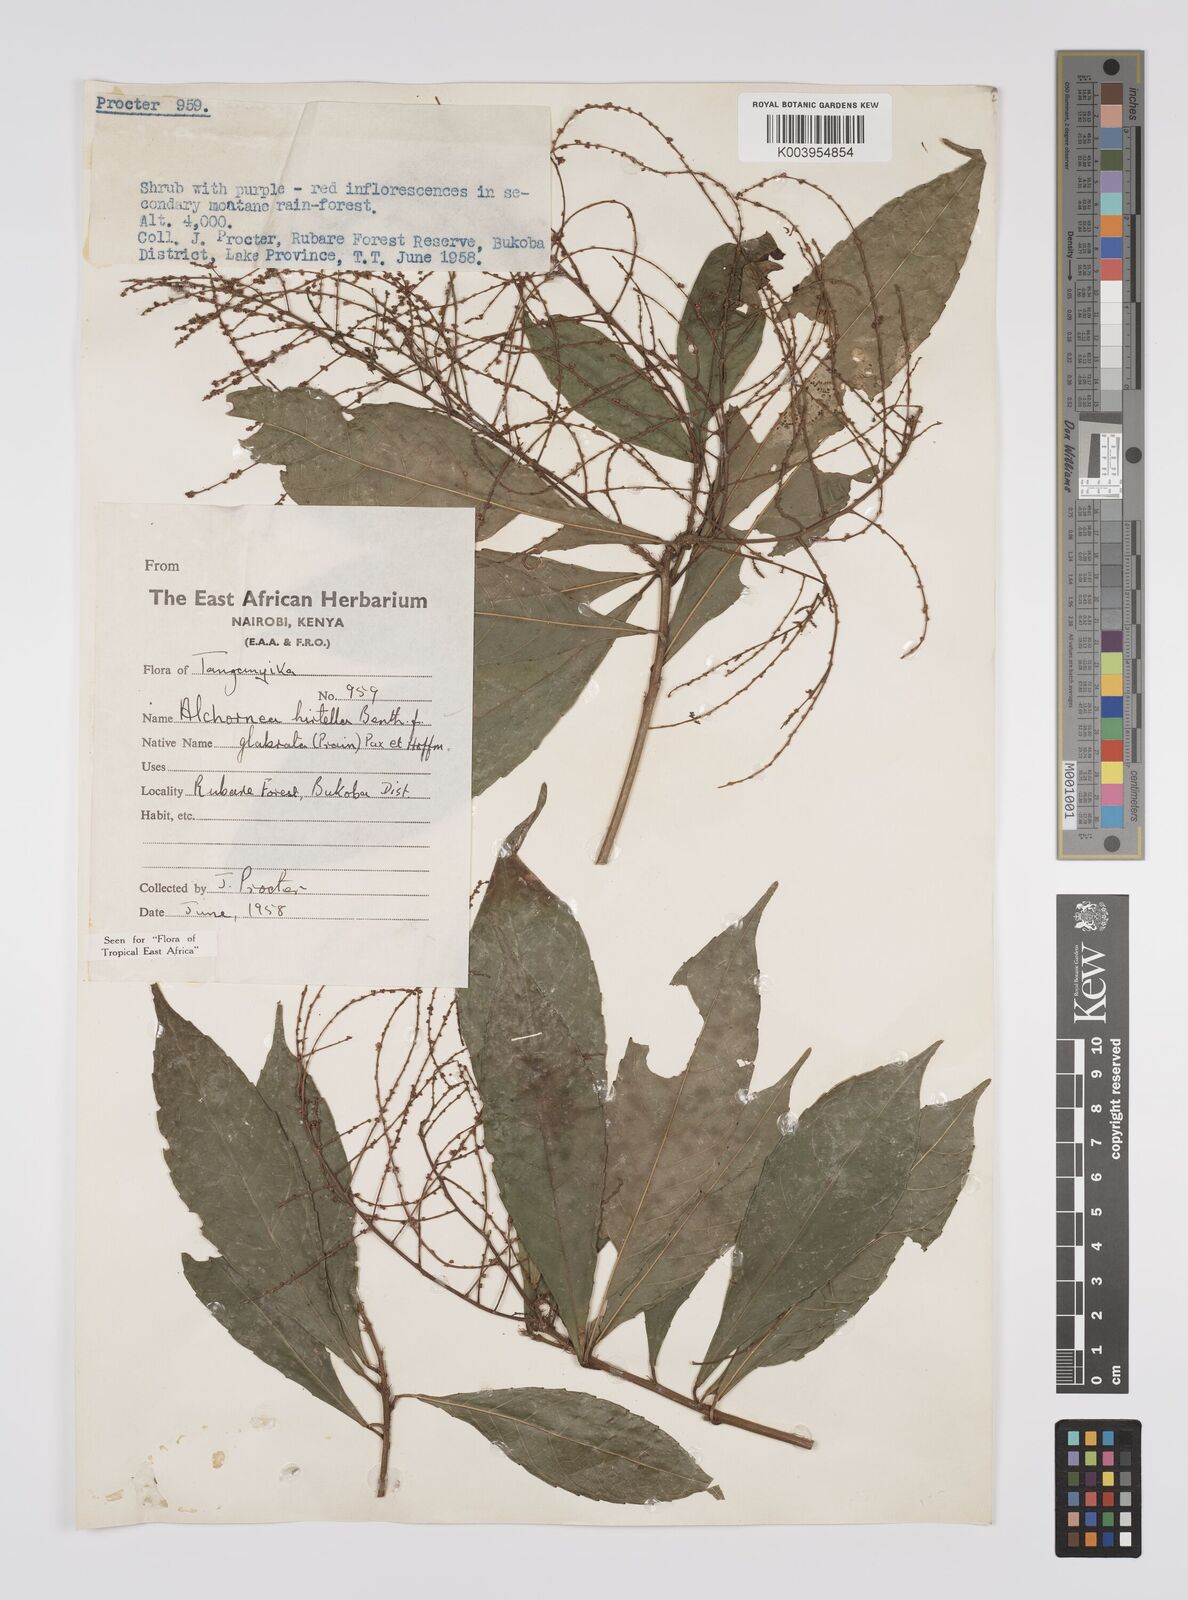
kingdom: Plantae
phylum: Tracheophyta
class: Magnoliopsida
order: Malpighiales
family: Euphorbiaceae
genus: Alchornea
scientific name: Alchornea hirtella
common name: Forest bead-string
